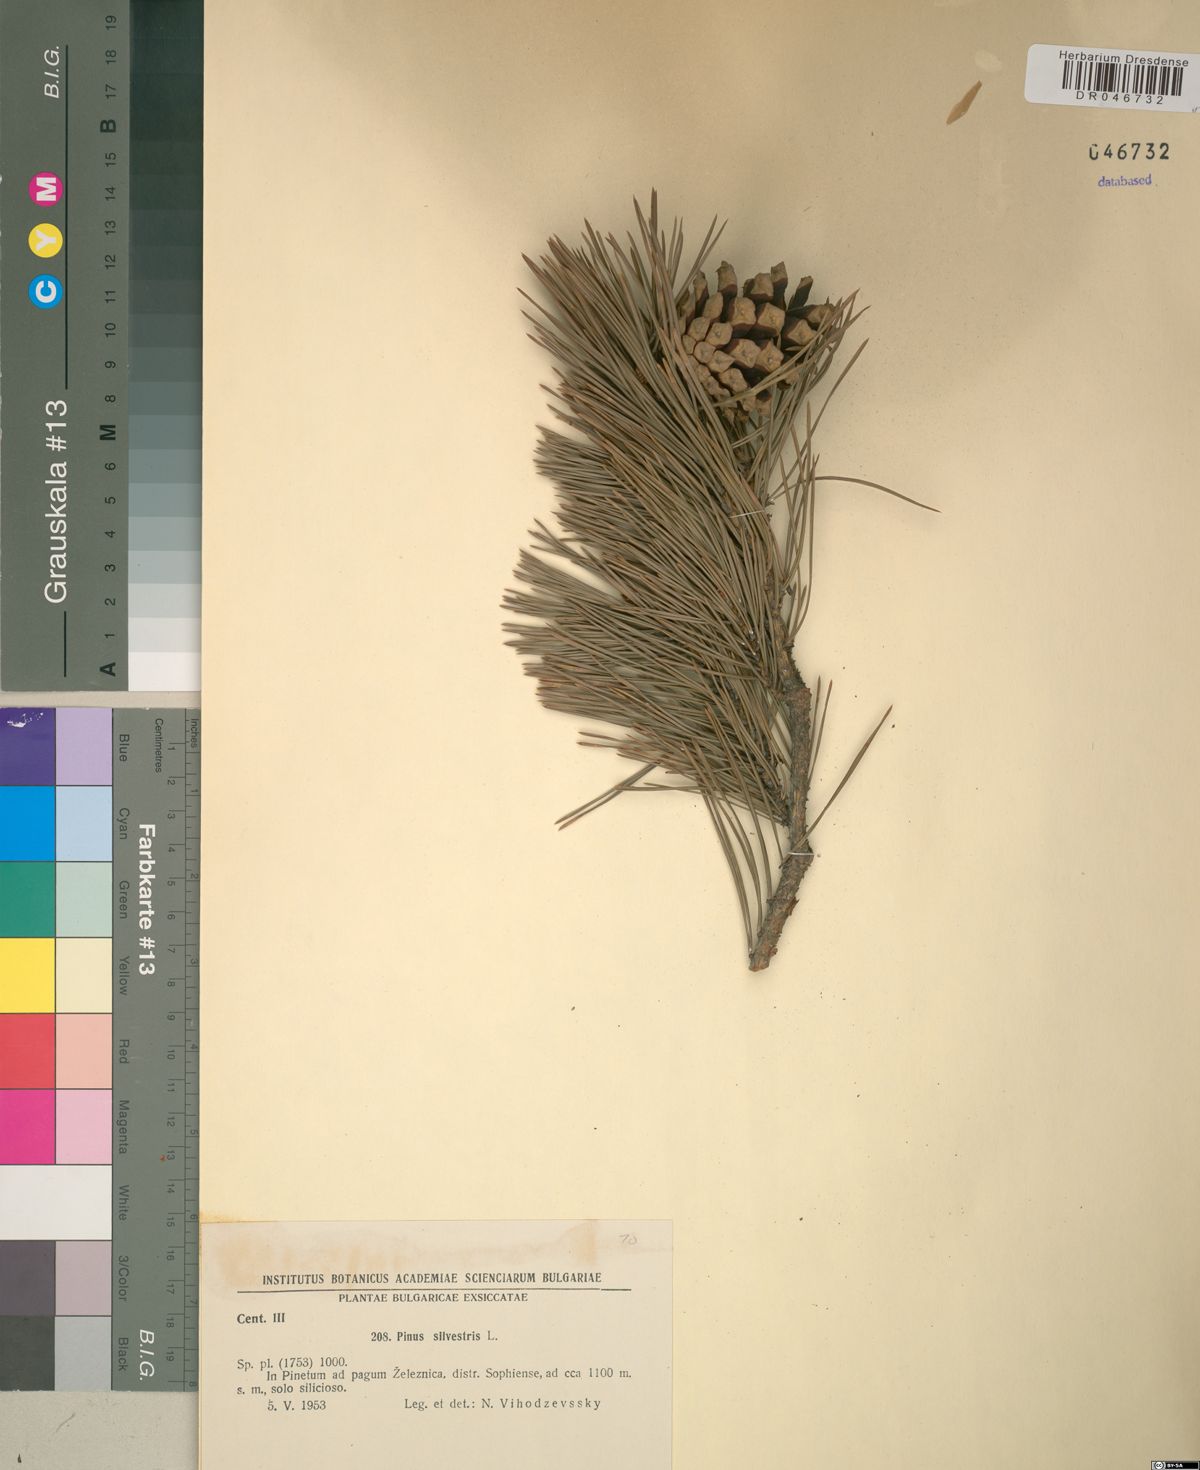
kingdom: Plantae
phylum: Tracheophyta
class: Pinopsida
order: Pinales
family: Pinaceae
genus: Pinus
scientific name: Pinus sylvestris
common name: Scots pine
